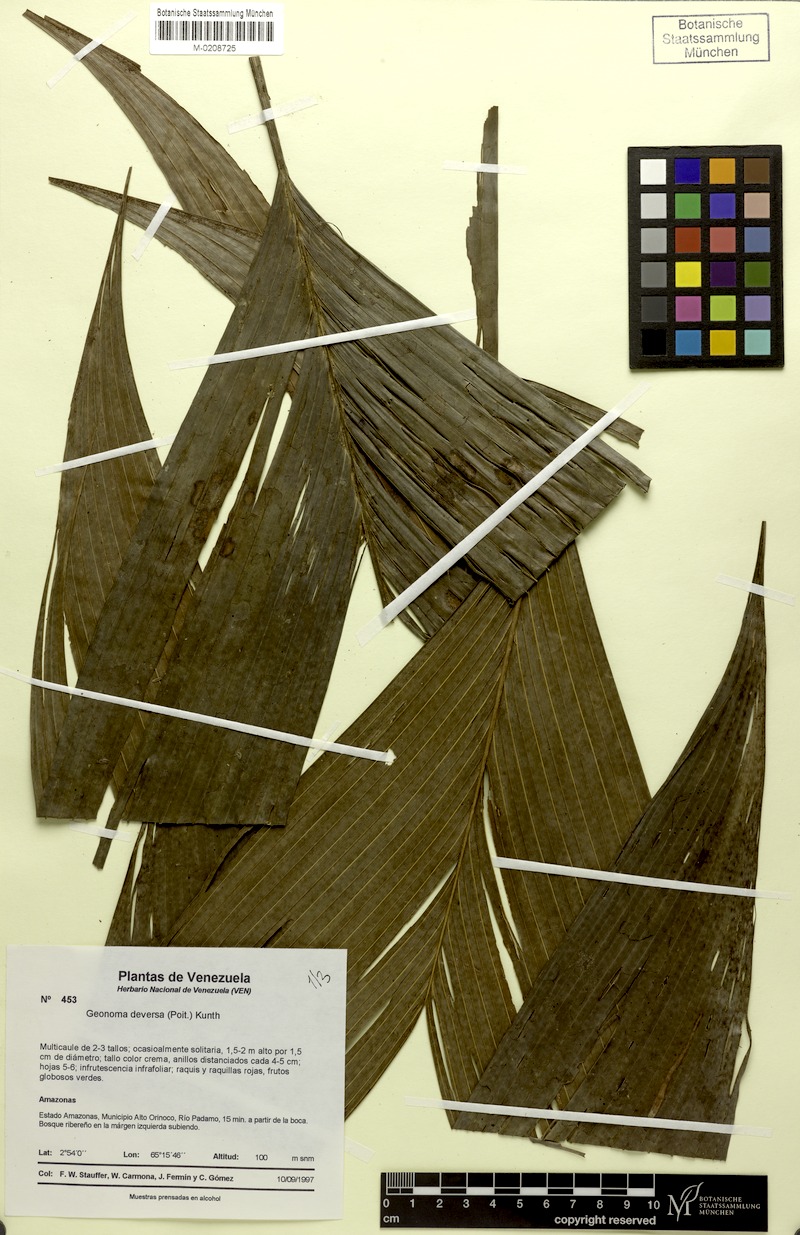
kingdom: Plantae
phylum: Tracheophyta
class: Liliopsida
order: Arecales
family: Arecaceae
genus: Geonoma
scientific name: Geonoma deversa
